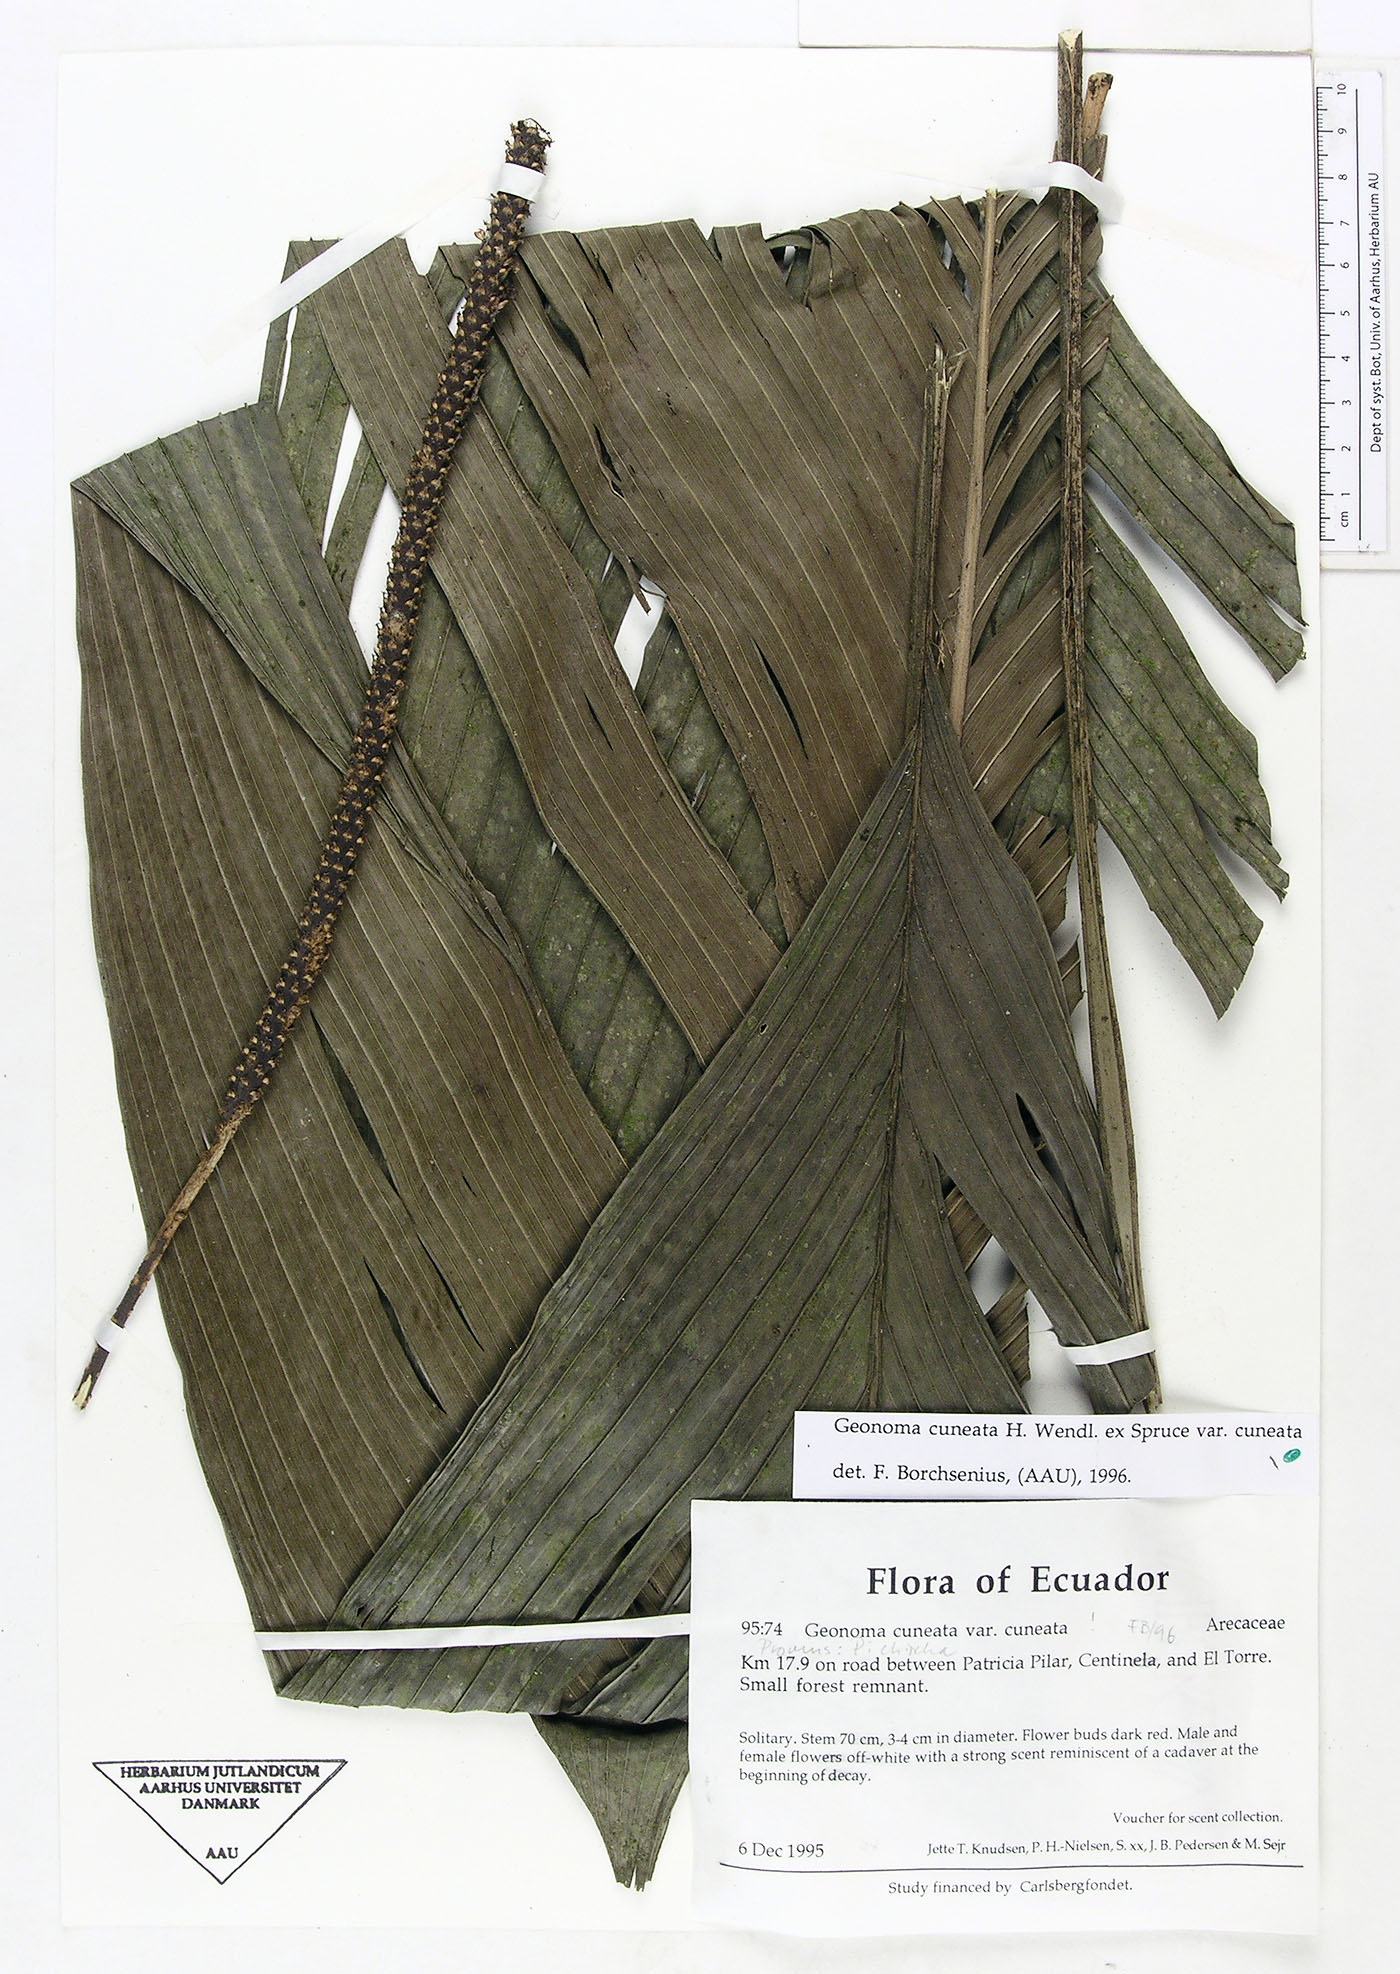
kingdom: Plantae
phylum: Tracheophyta
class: Liliopsida
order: Arecales
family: Arecaceae
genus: Geonoma
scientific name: Geonoma cuneata
